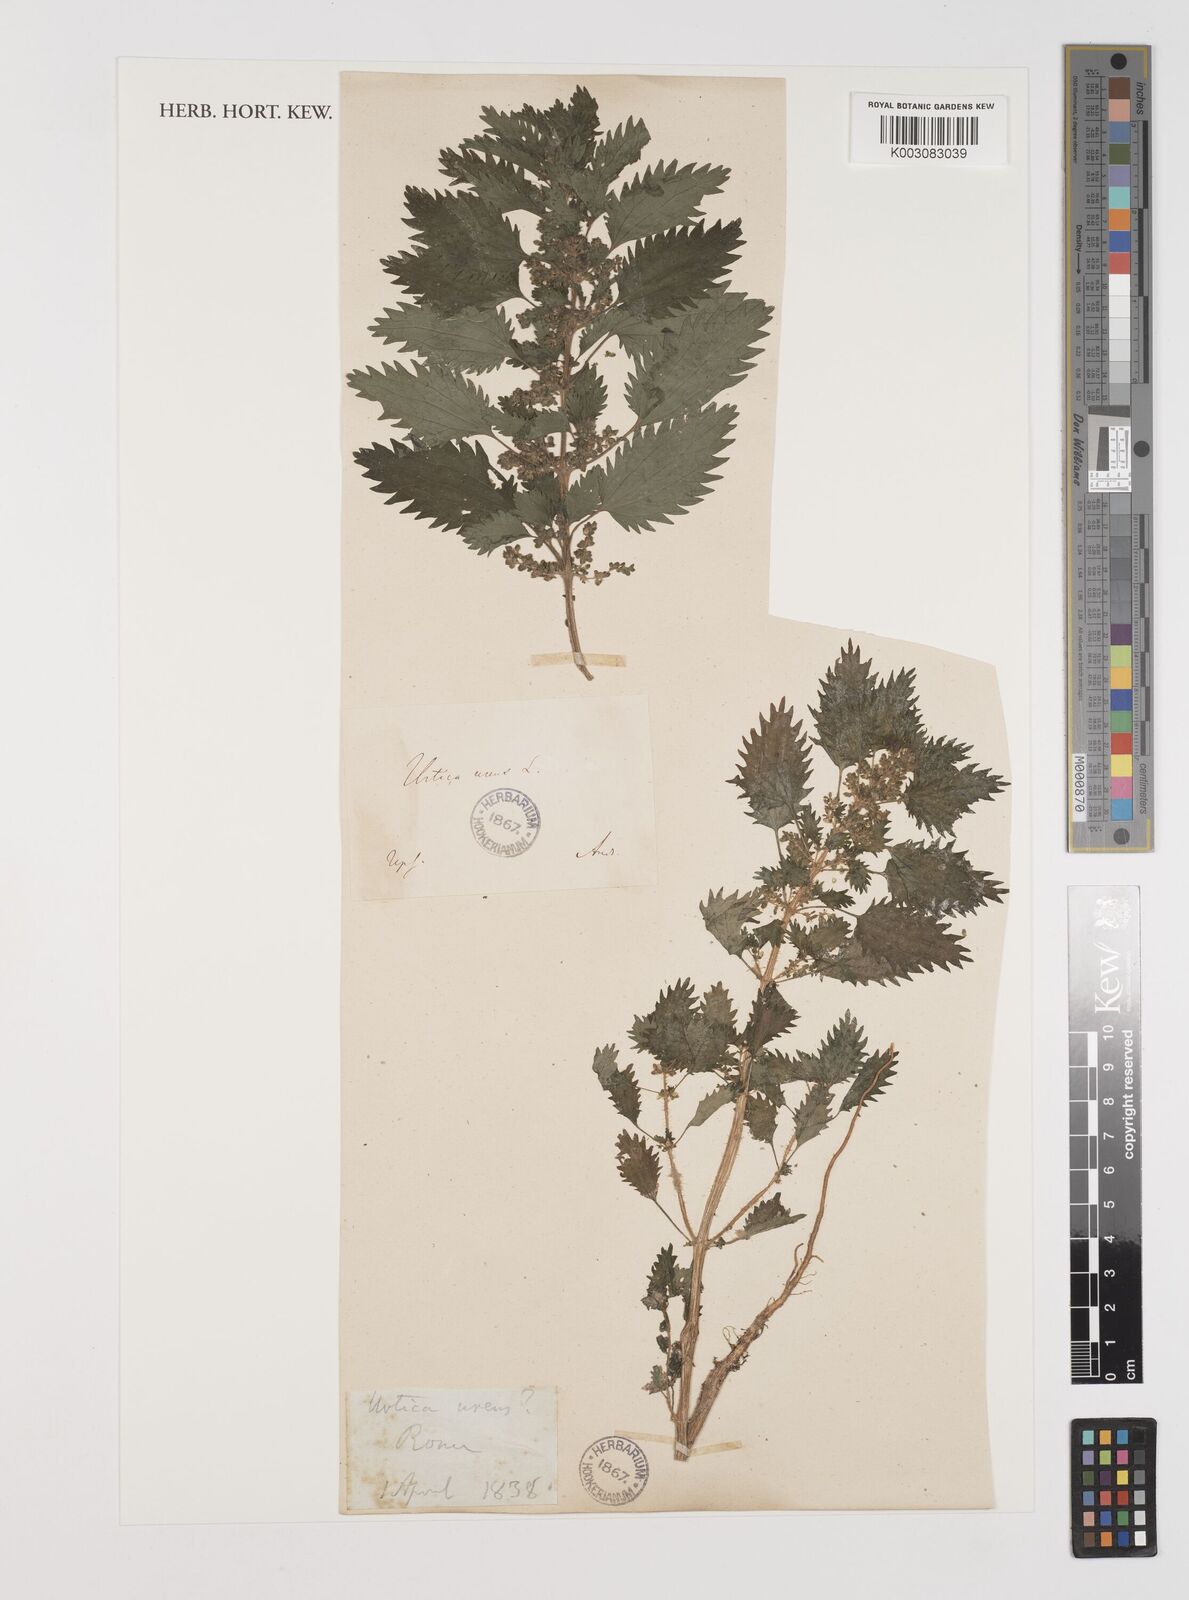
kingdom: Plantae
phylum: Tracheophyta
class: Magnoliopsida
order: Rosales
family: Urticaceae
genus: Urtica
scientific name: Urtica urens
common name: Dwarf nettle
